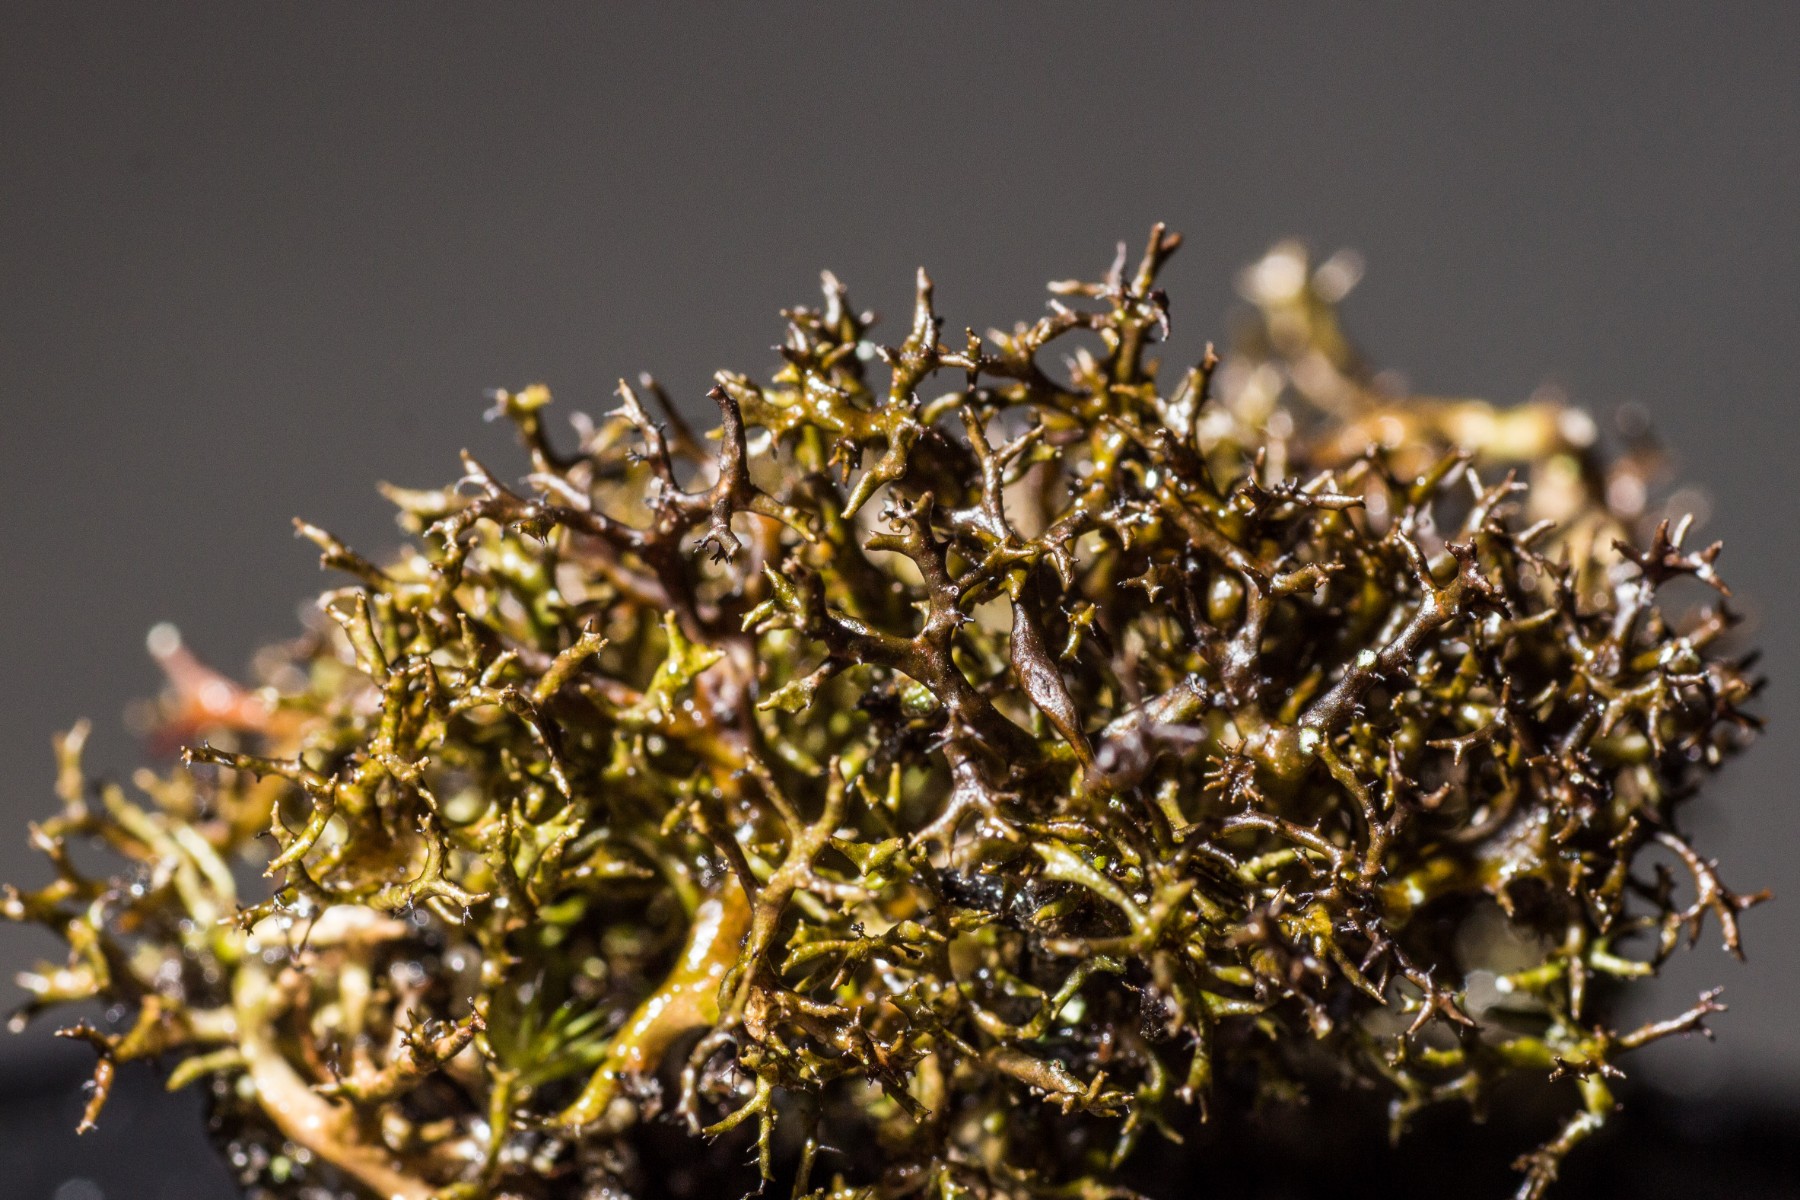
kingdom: Fungi
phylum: Ascomycota
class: Lecanoromycetes
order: Lecanorales
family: Parmeliaceae
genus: Cetraria
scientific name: Cetraria muricata
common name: tue-tjørnelav
